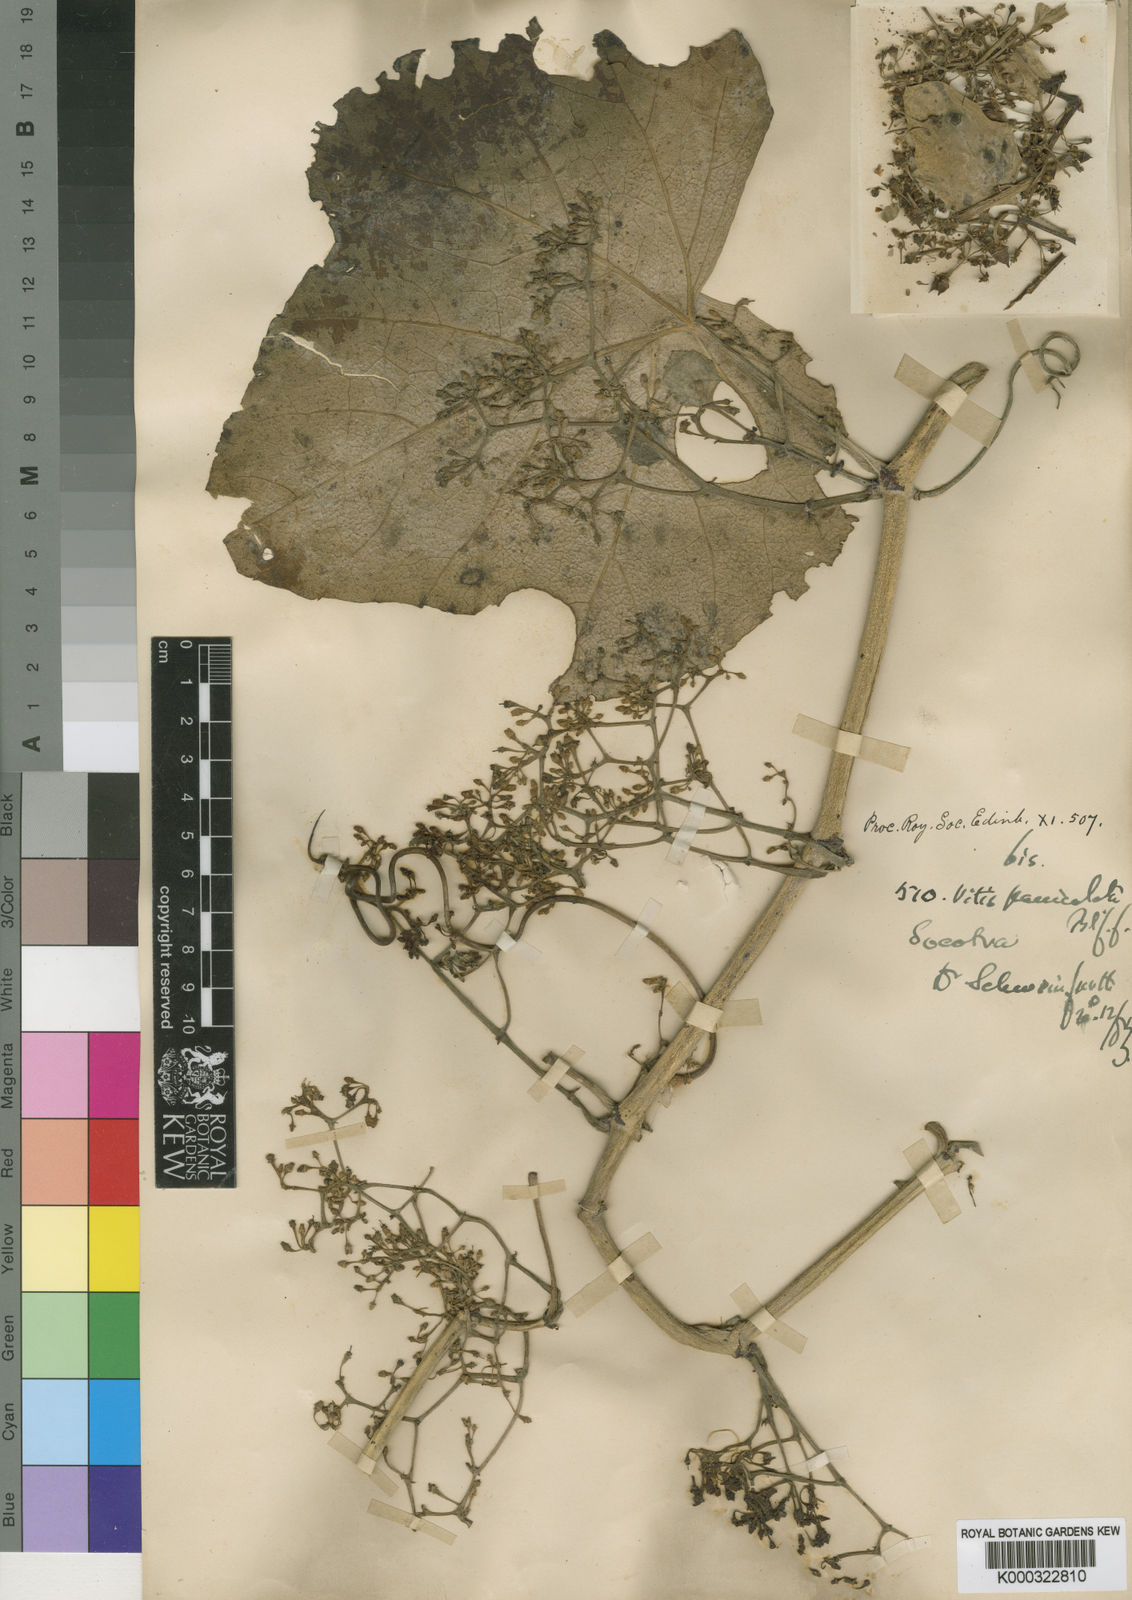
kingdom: Plantae
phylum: Tracheophyta
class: Magnoliopsida
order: Vitales
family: Vitaceae
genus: Cissus
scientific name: Cissus paniculata
